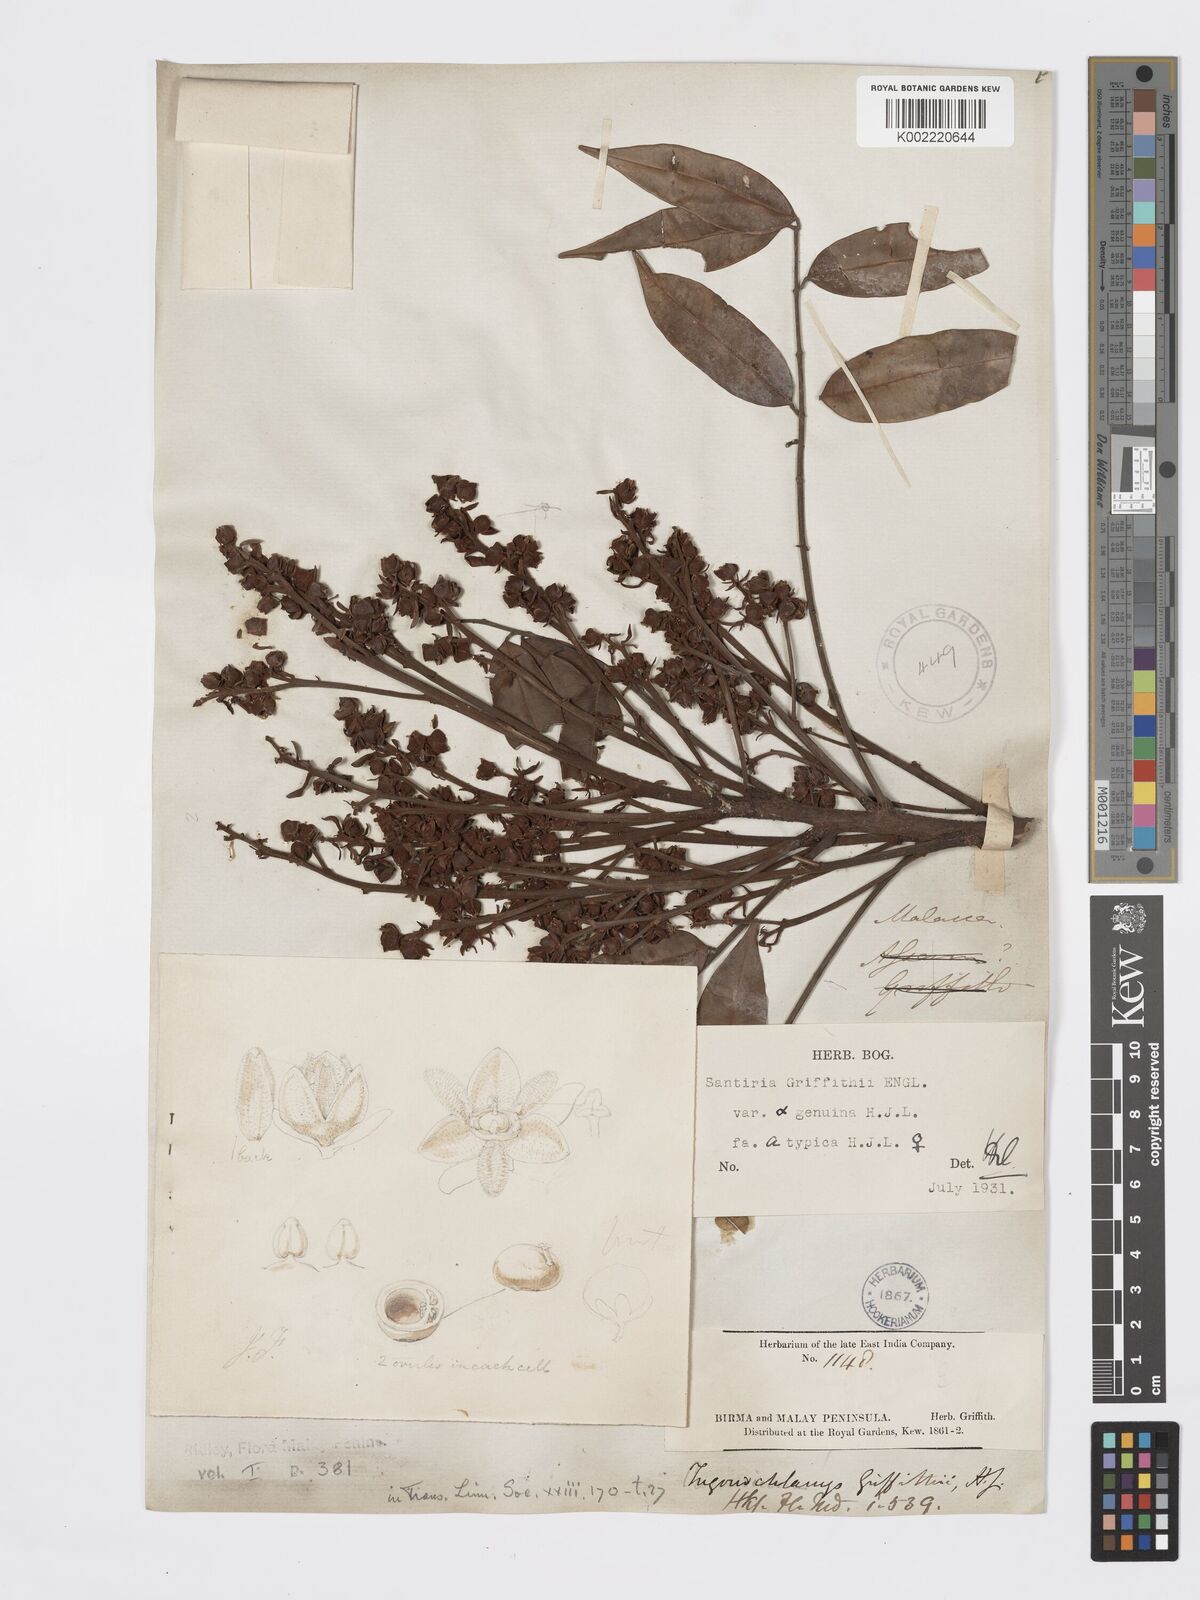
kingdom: Plantae
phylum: Tracheophyta
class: Magnoliopsida
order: Sapindales
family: Burseraceae
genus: Santiria
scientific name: Santiria griffithii
